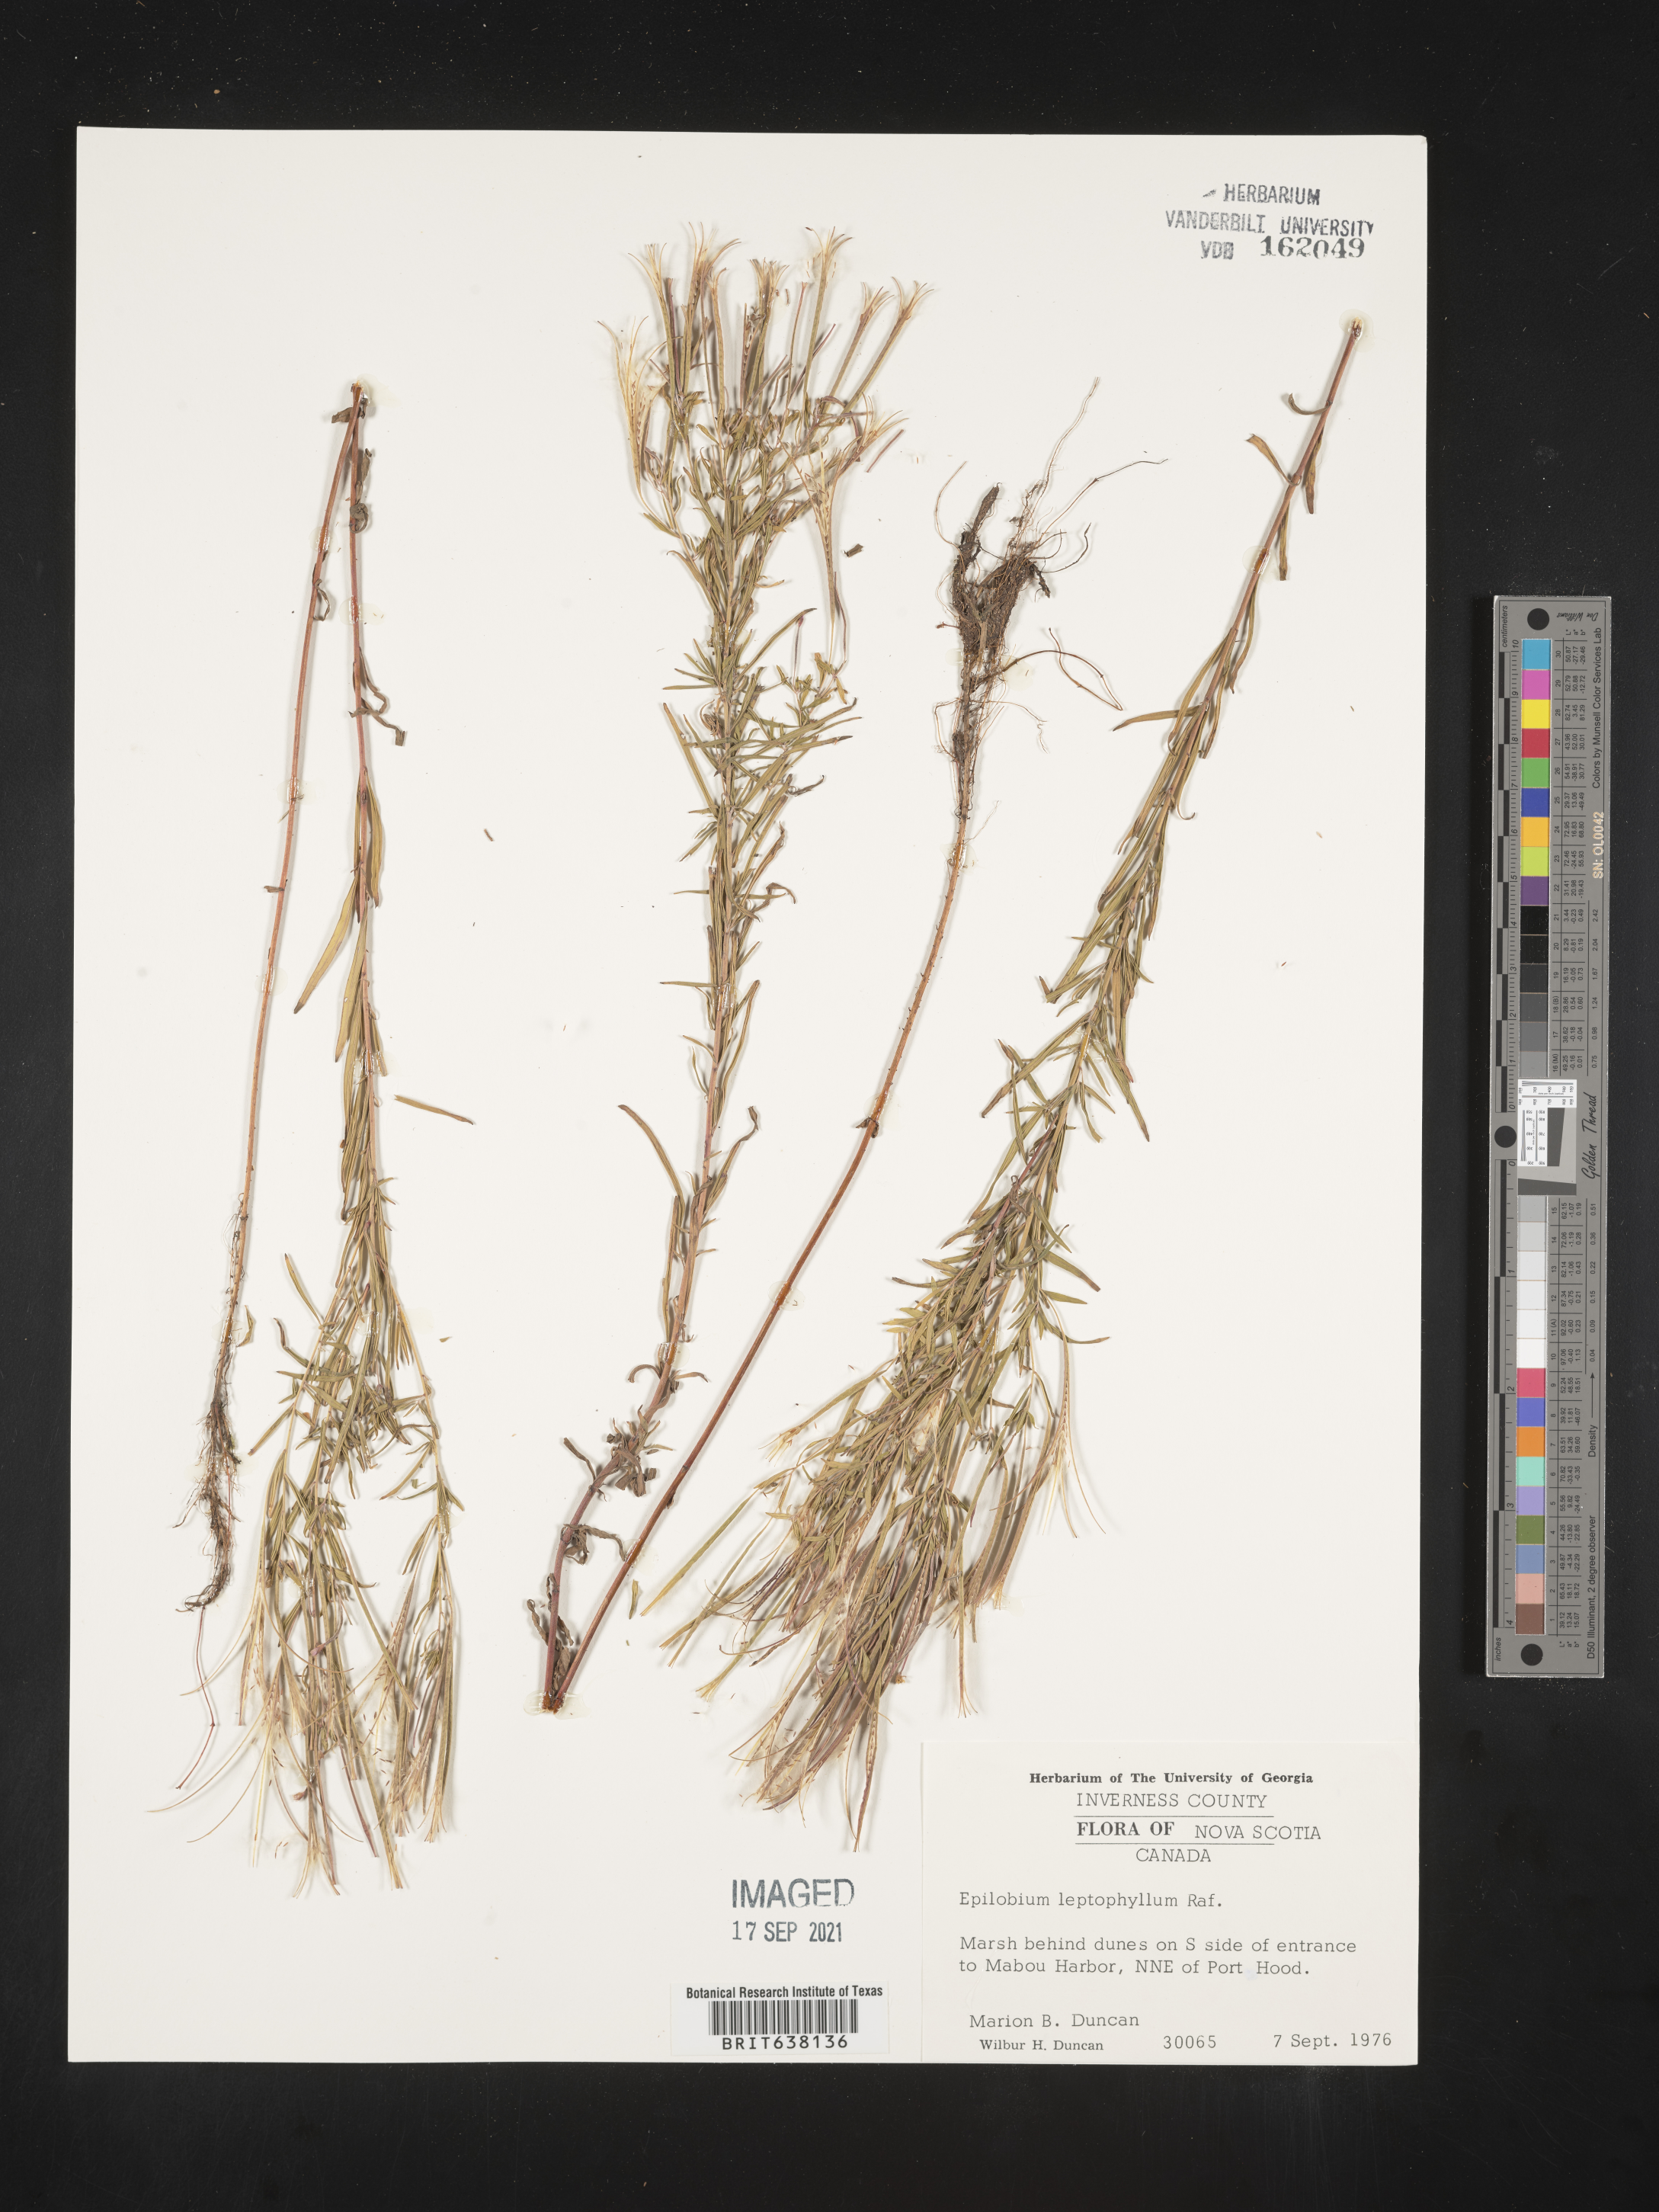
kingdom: Plantae
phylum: Tracheophyta
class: Magnoliopsida
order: Myrtales
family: Onagraceae
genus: Epilobium
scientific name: Epilobium
